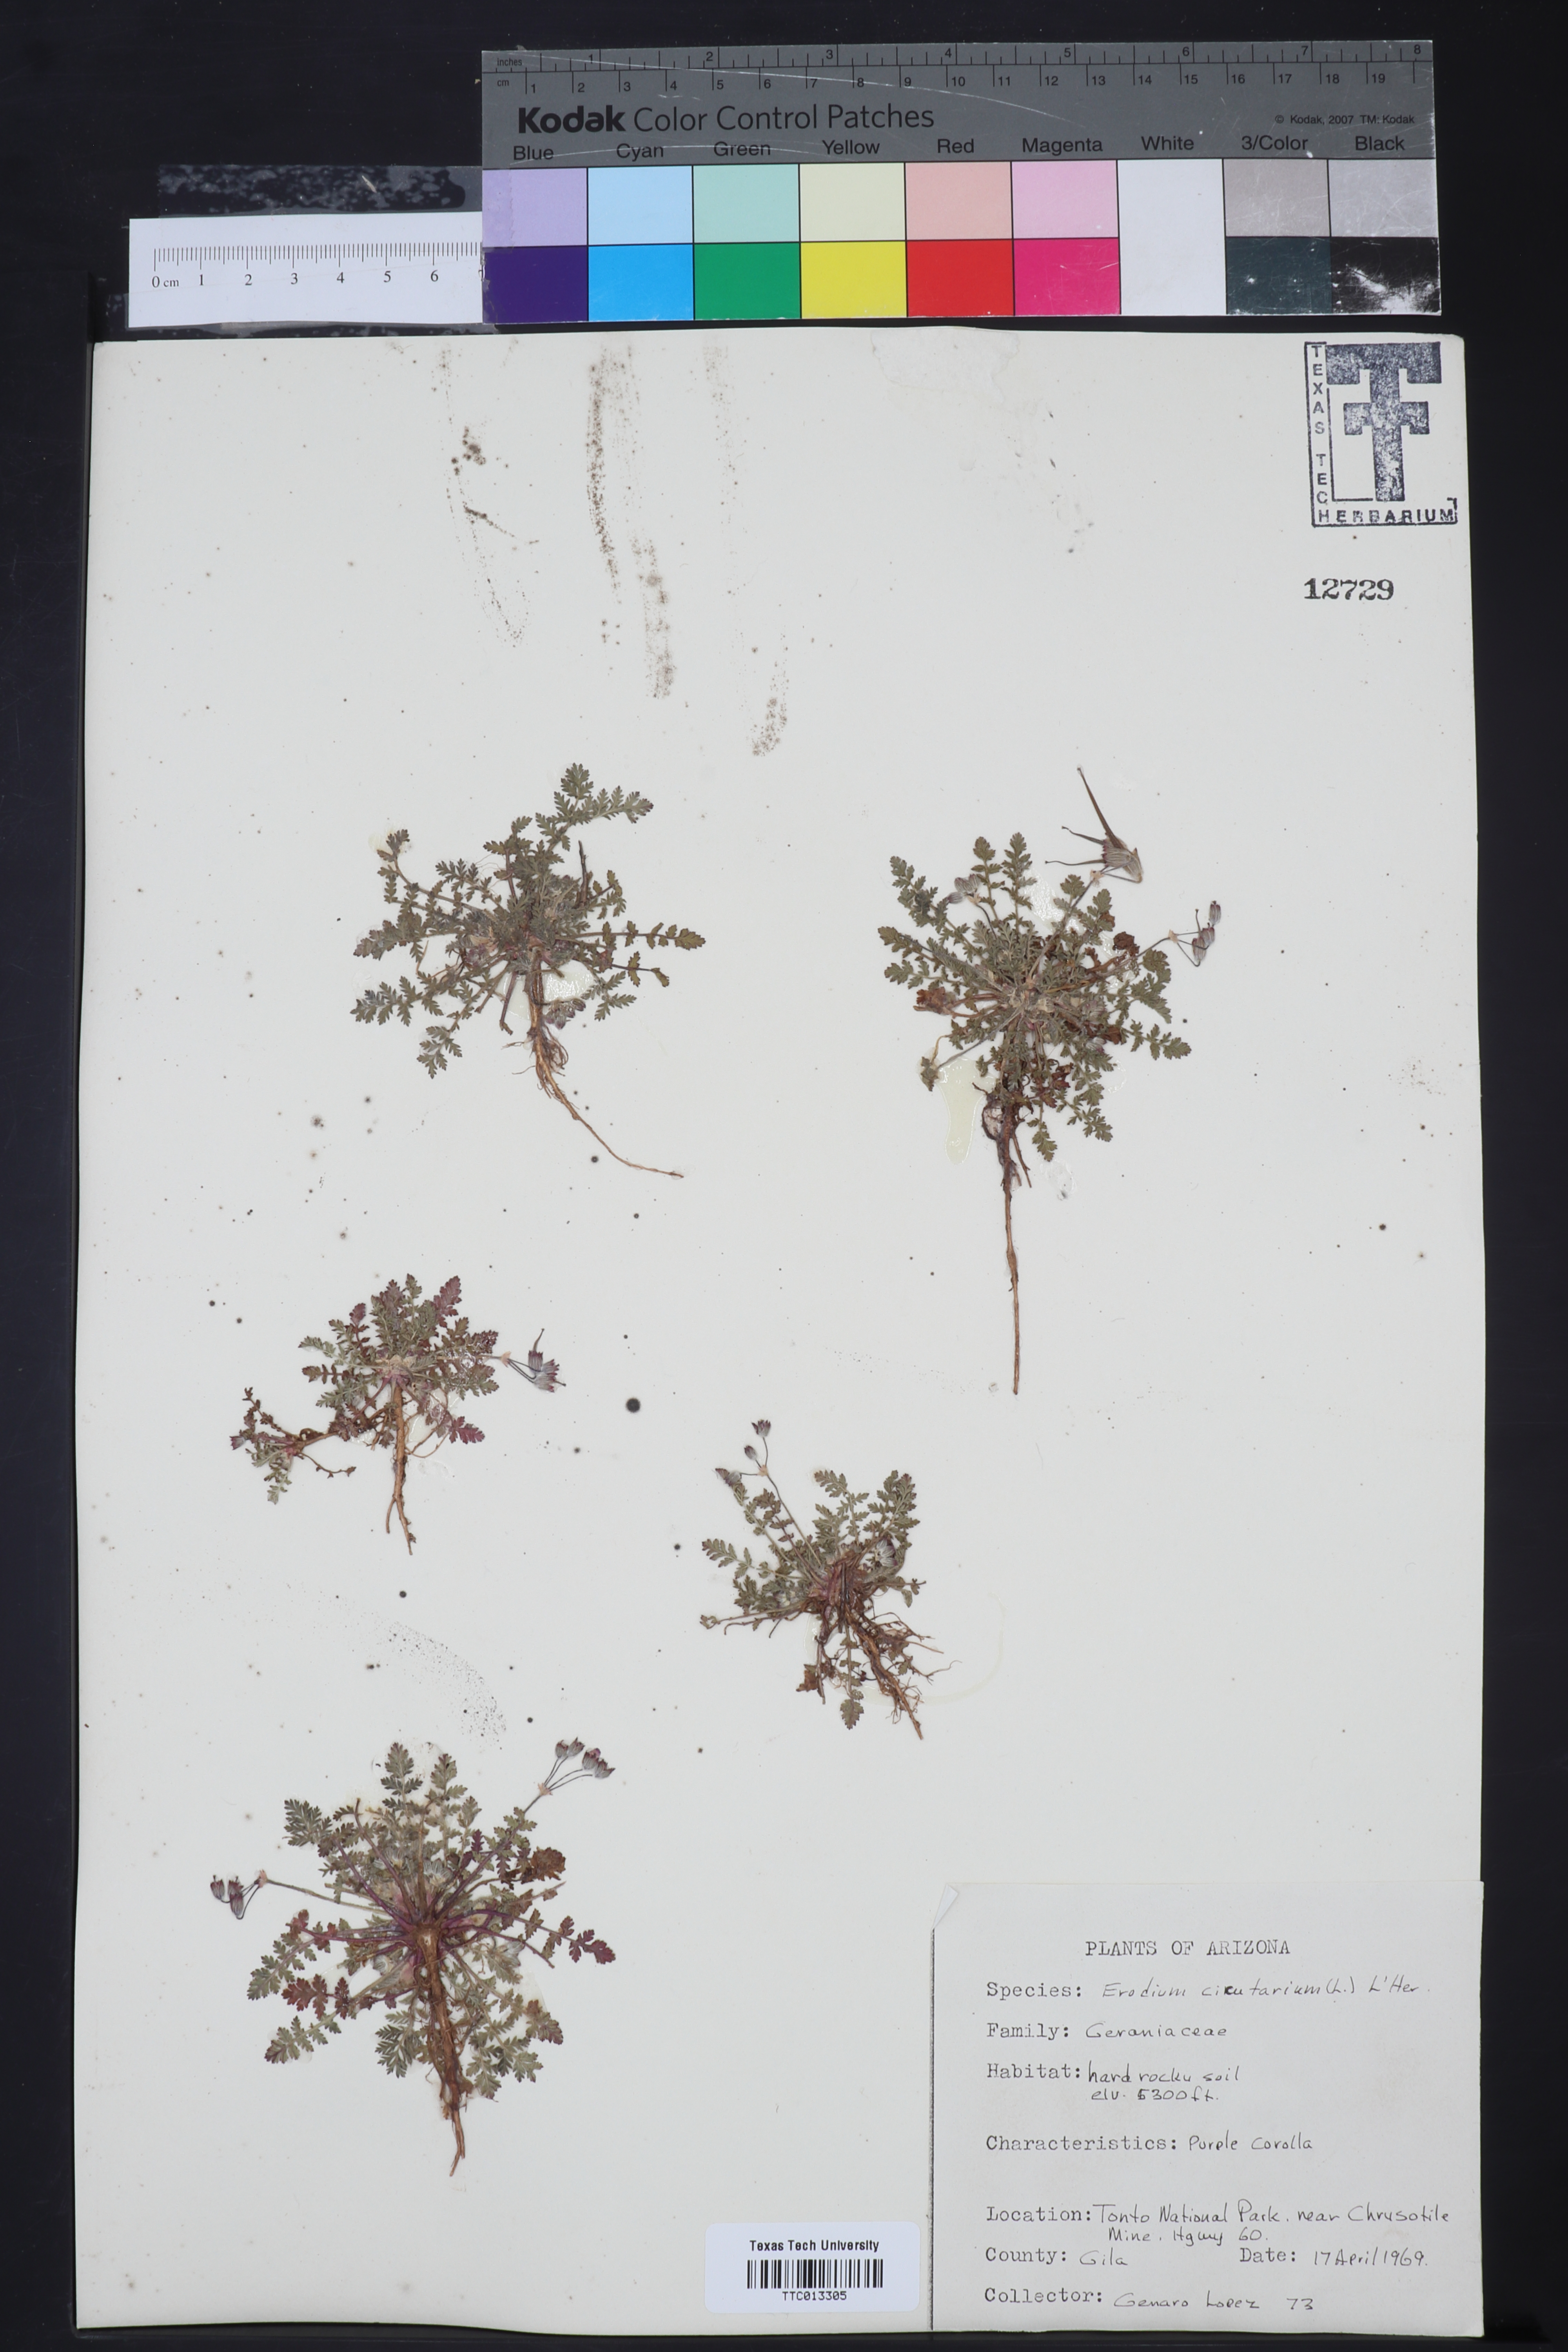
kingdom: Plantae
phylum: Tracheophyta
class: Magnoliopsida
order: Geraniales
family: Geraniaceae
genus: Erodium
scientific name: Erodium cicutarium
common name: Common stork's-bill
